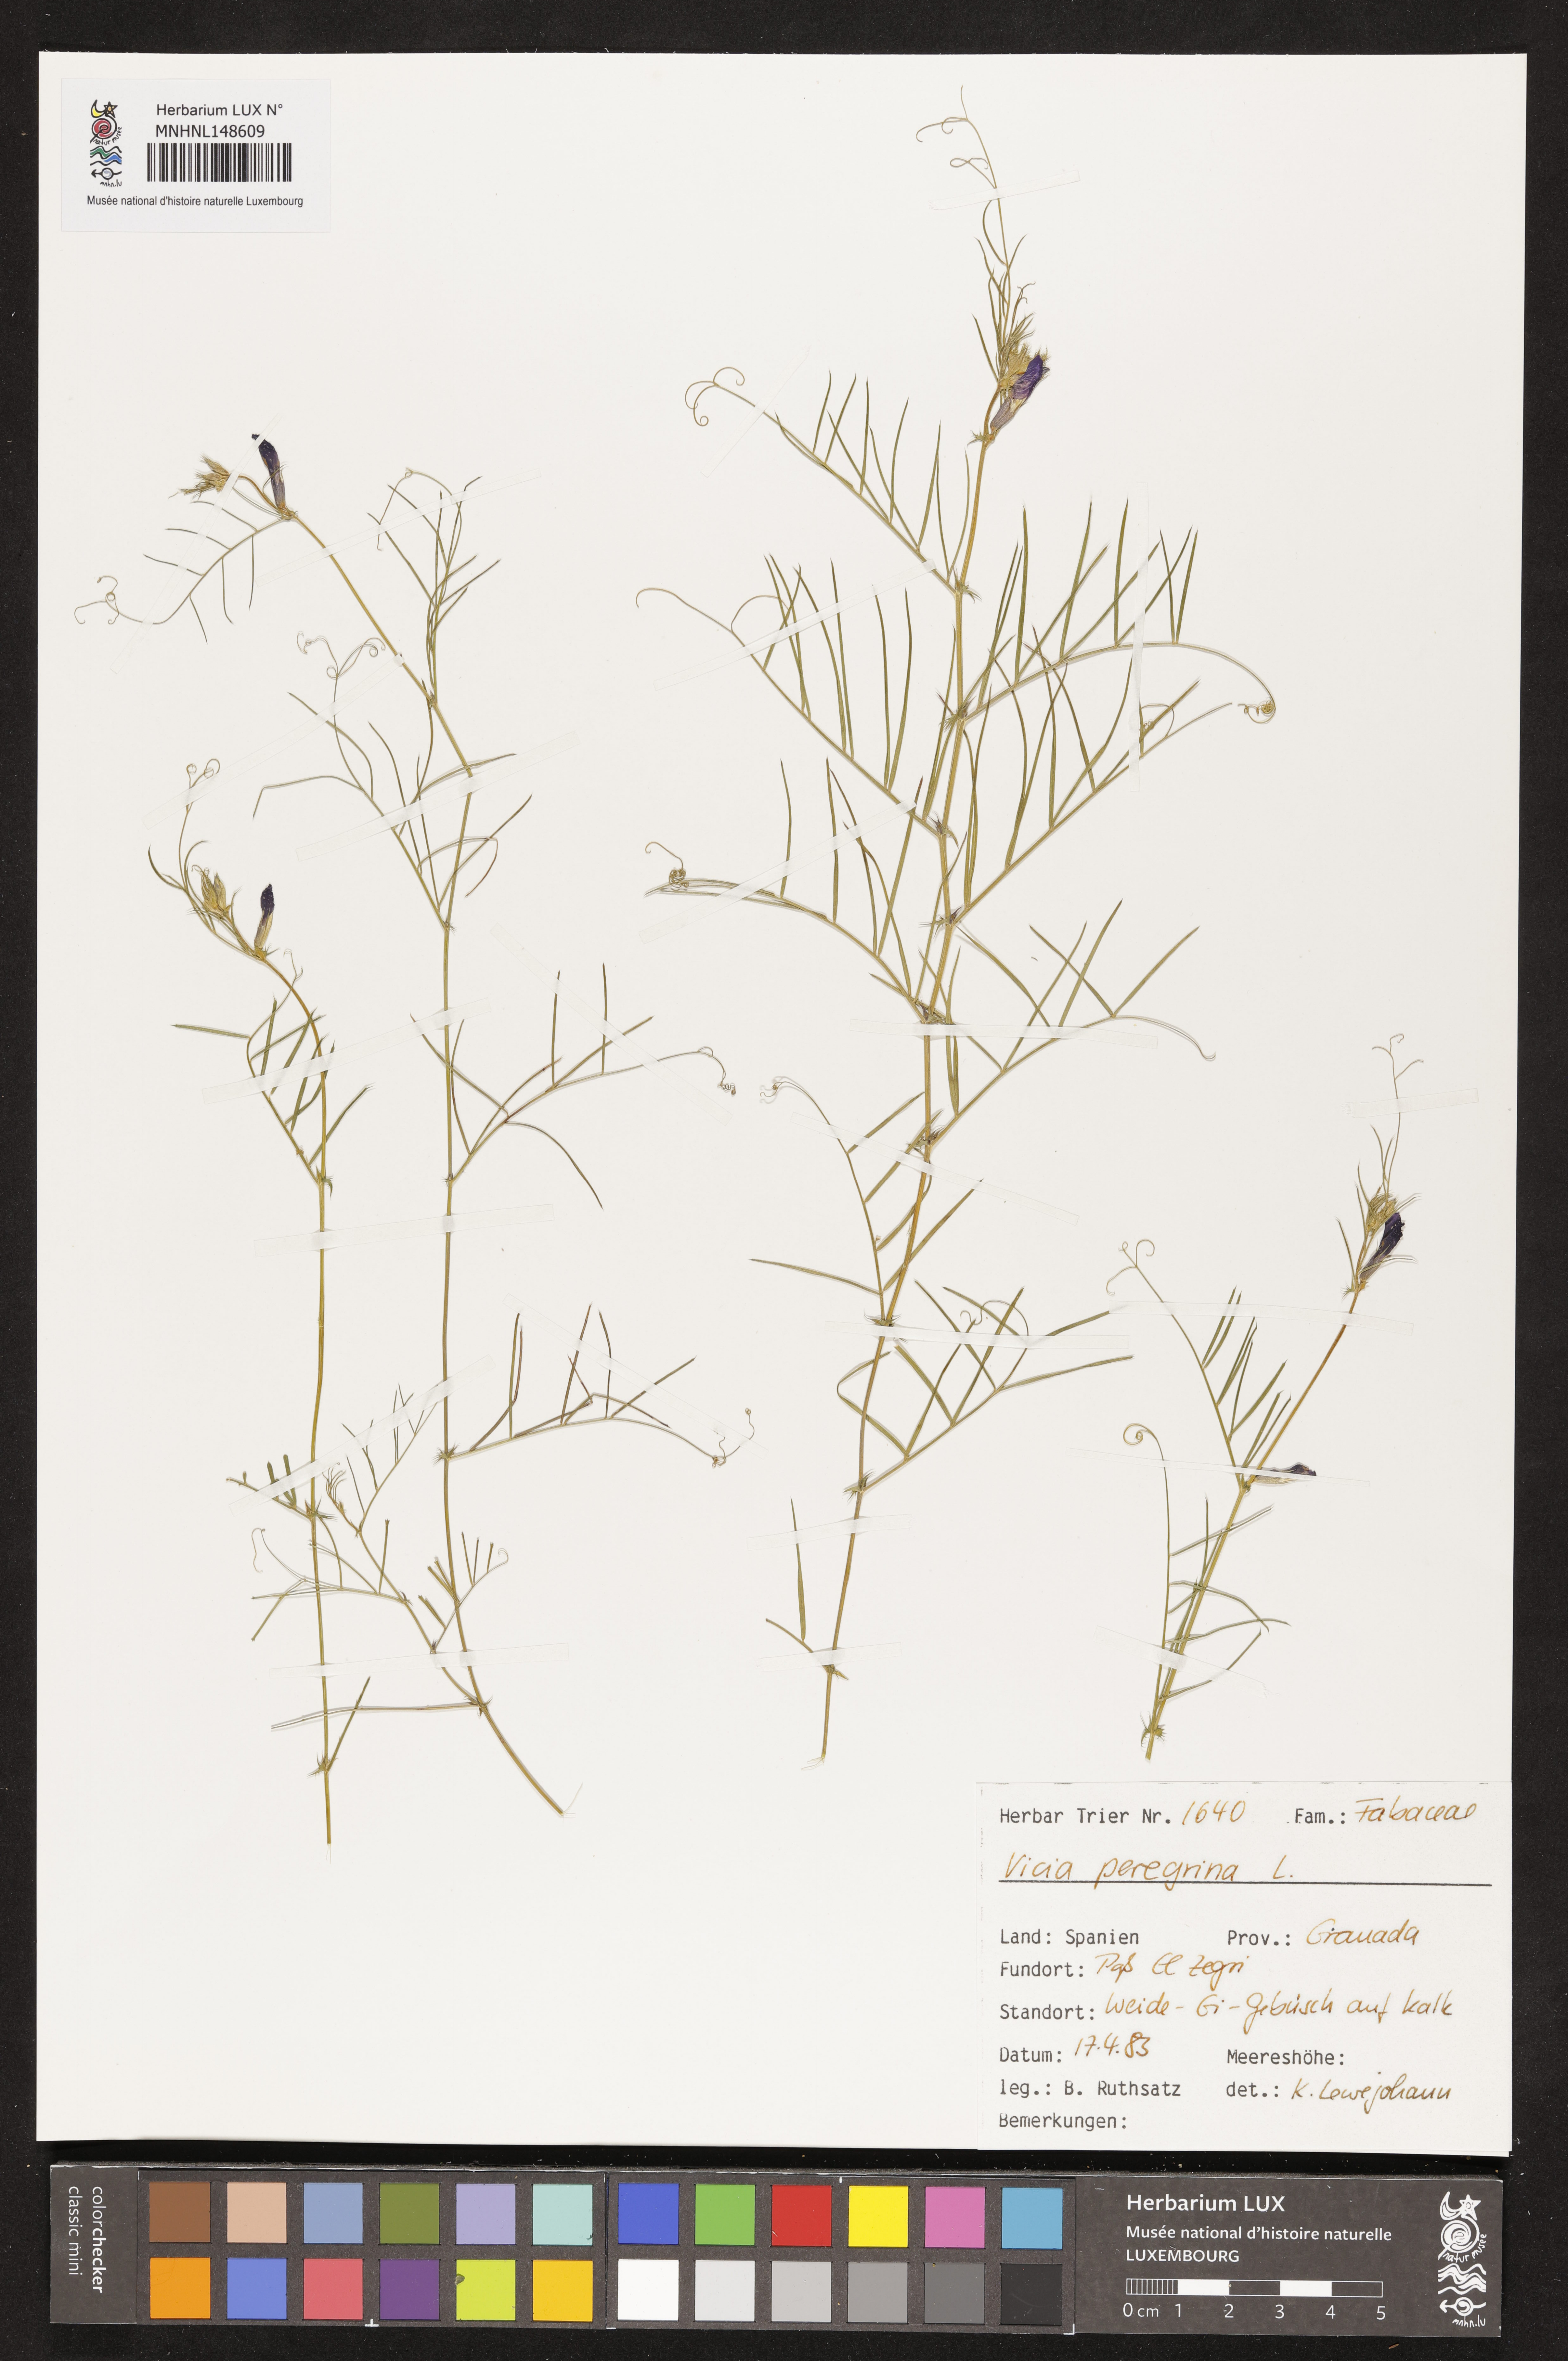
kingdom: Plantae
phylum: Tracheophyta
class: Magnoliopsida
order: Fabales
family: Fabaceae
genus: Vicia
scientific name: Vicia peregrina
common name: Broad-pod vetch
